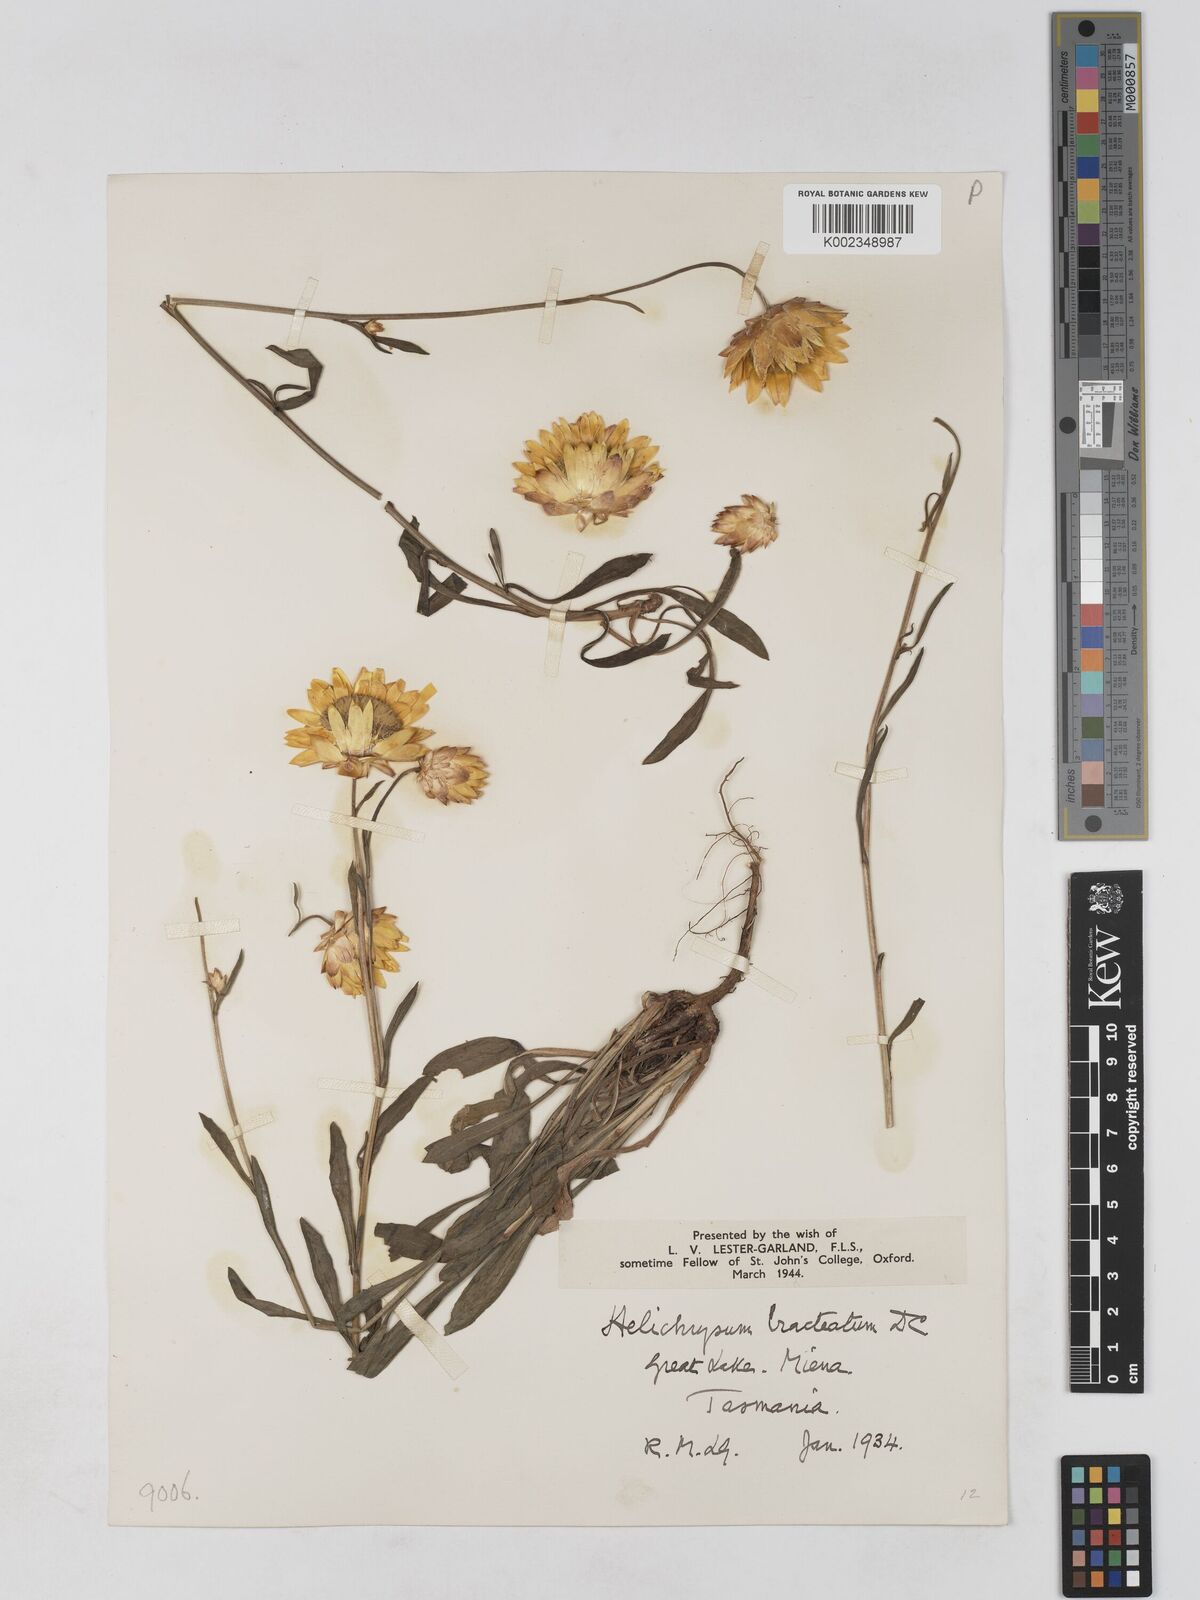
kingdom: Plantae
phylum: Tracheophyta
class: Magnoliopsida
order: Asterales
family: Asteraceae
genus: Xerochrysum
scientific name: Xerochrysum bracteatum
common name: Bracted strawflower
